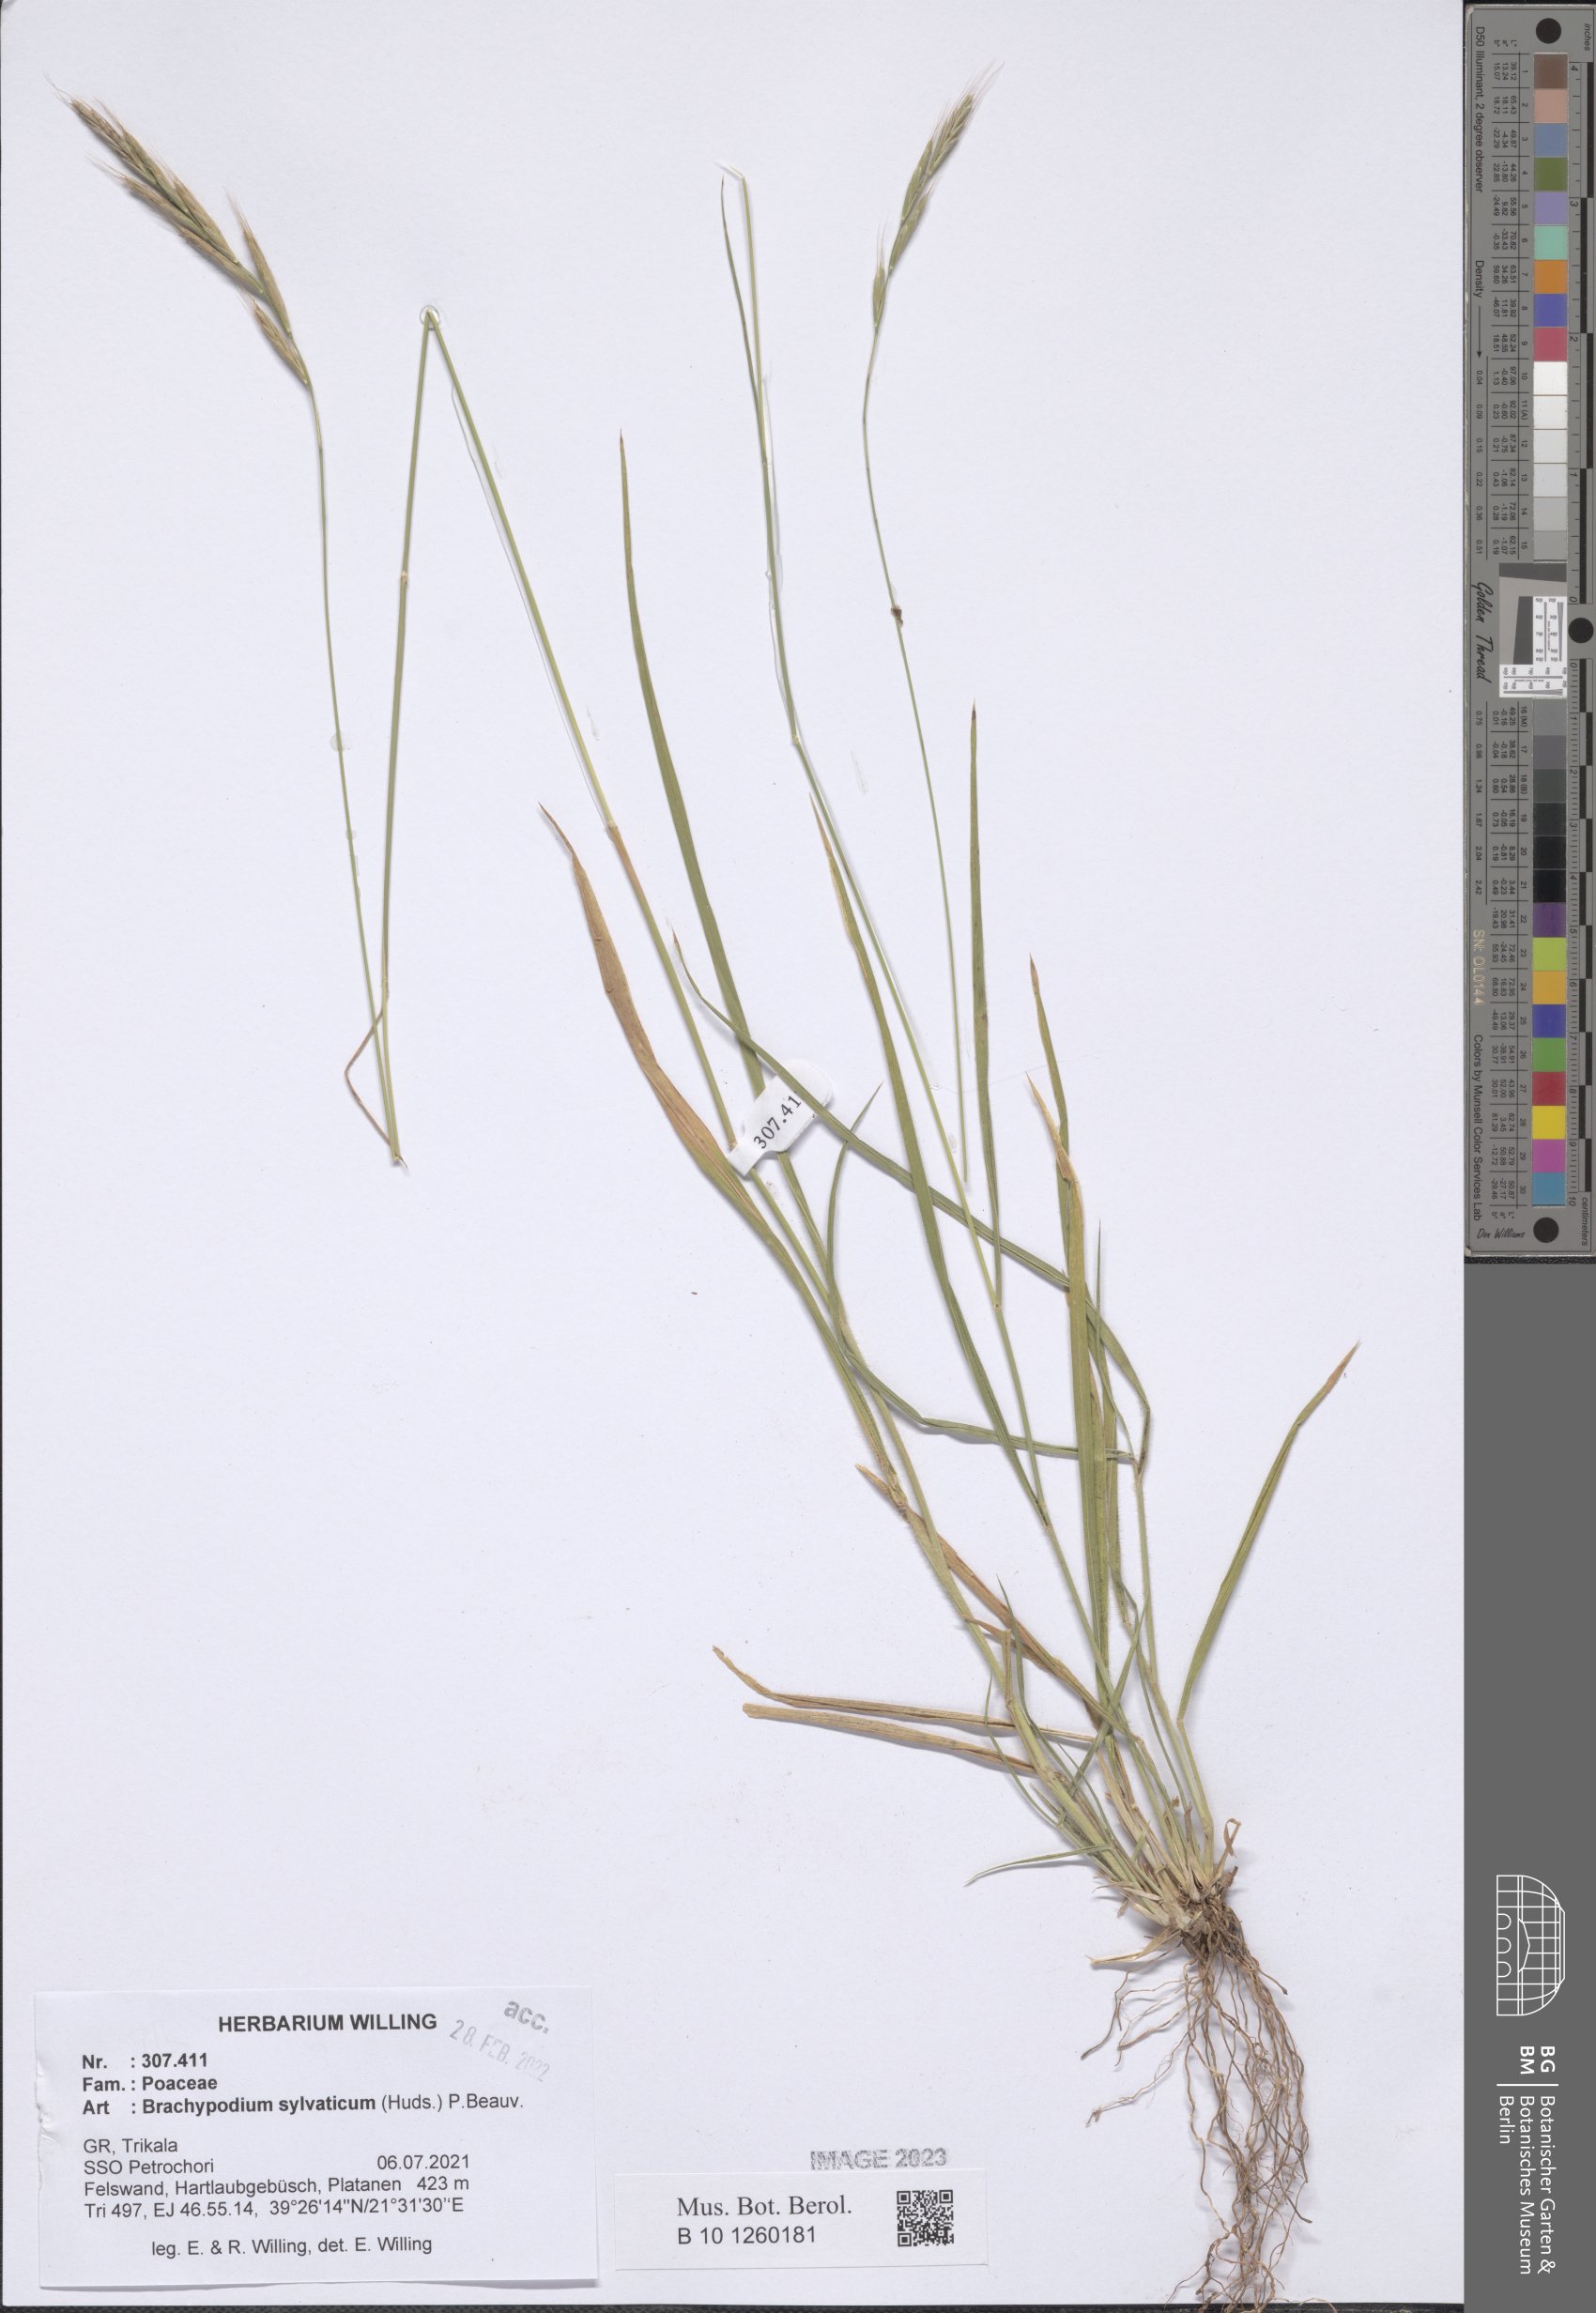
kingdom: Plantae
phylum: Tracheophyta
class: Liliopsida
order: Poales
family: Poaceae
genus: Brachypodium
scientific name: Brachypodium sylvaticum
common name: False-brome
